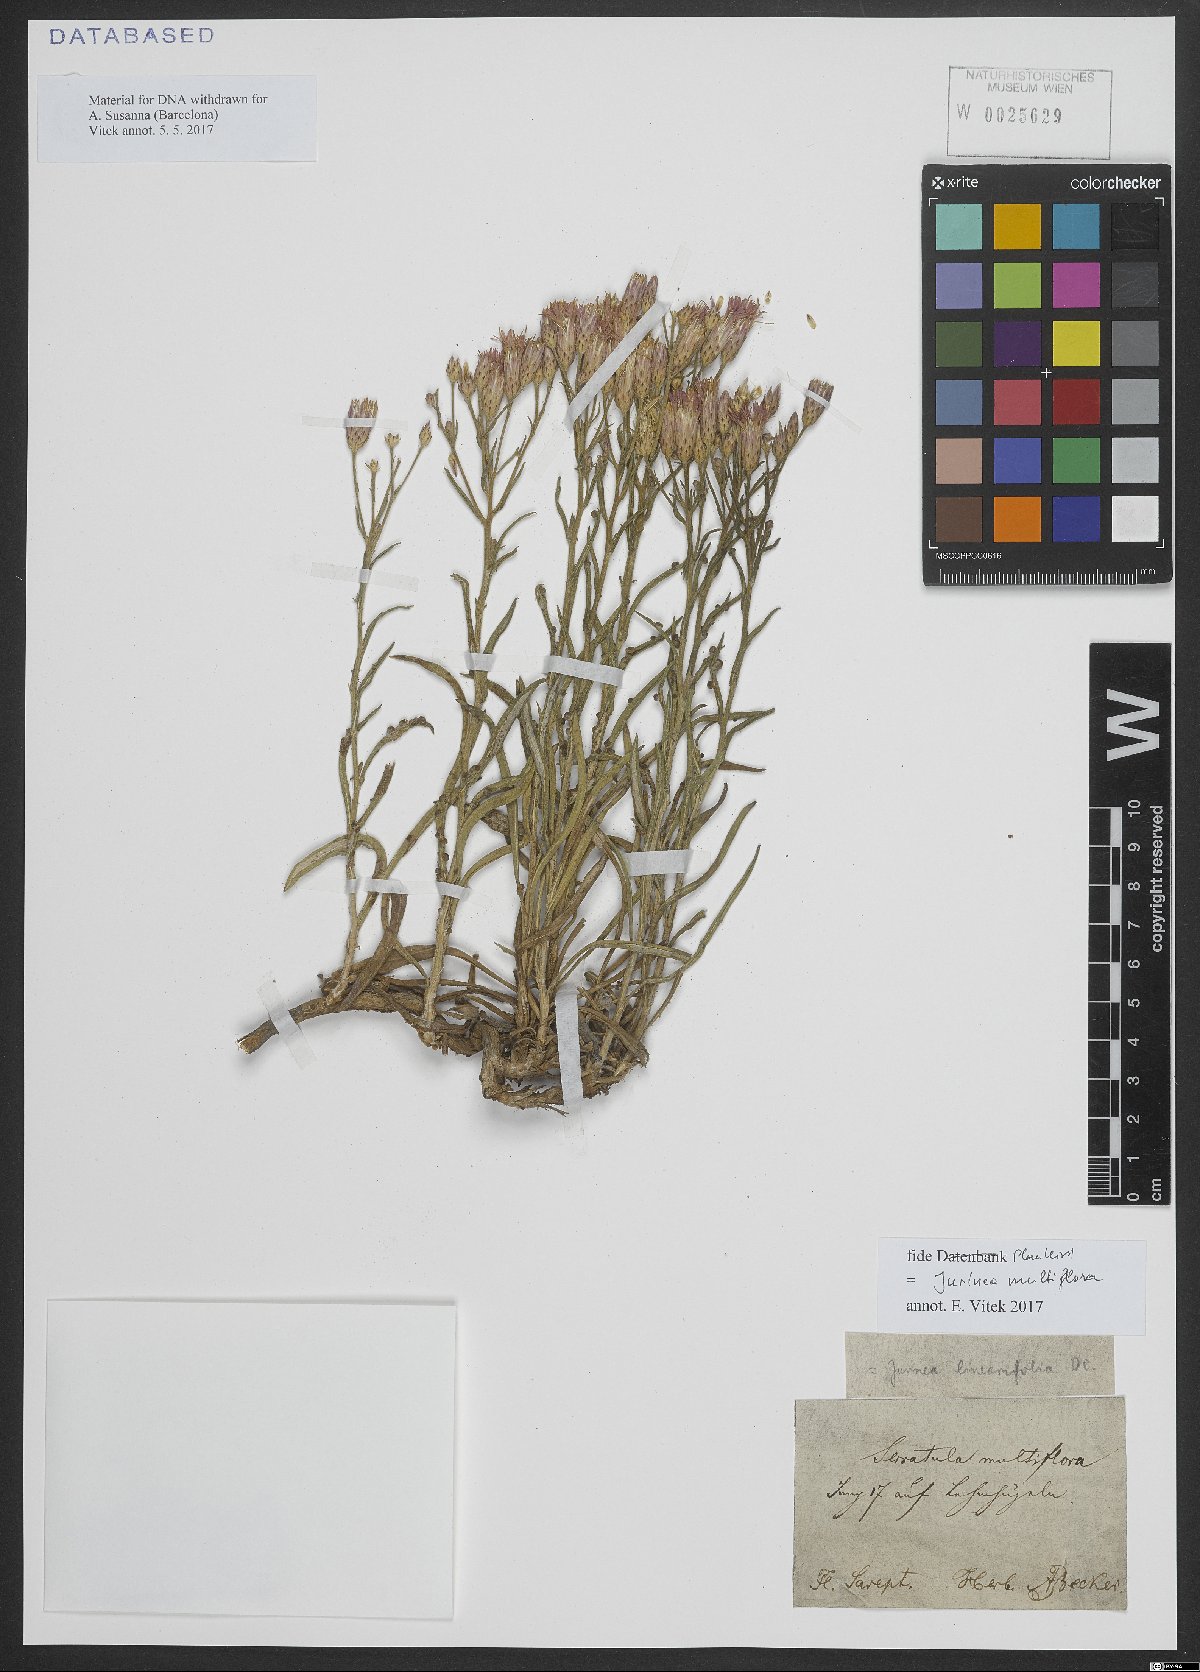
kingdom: Plantae
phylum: Tracheophyta
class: Magnoliopsida
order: Asterales
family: Asteraceae
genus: Jurinea
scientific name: Jurinea multiflora
